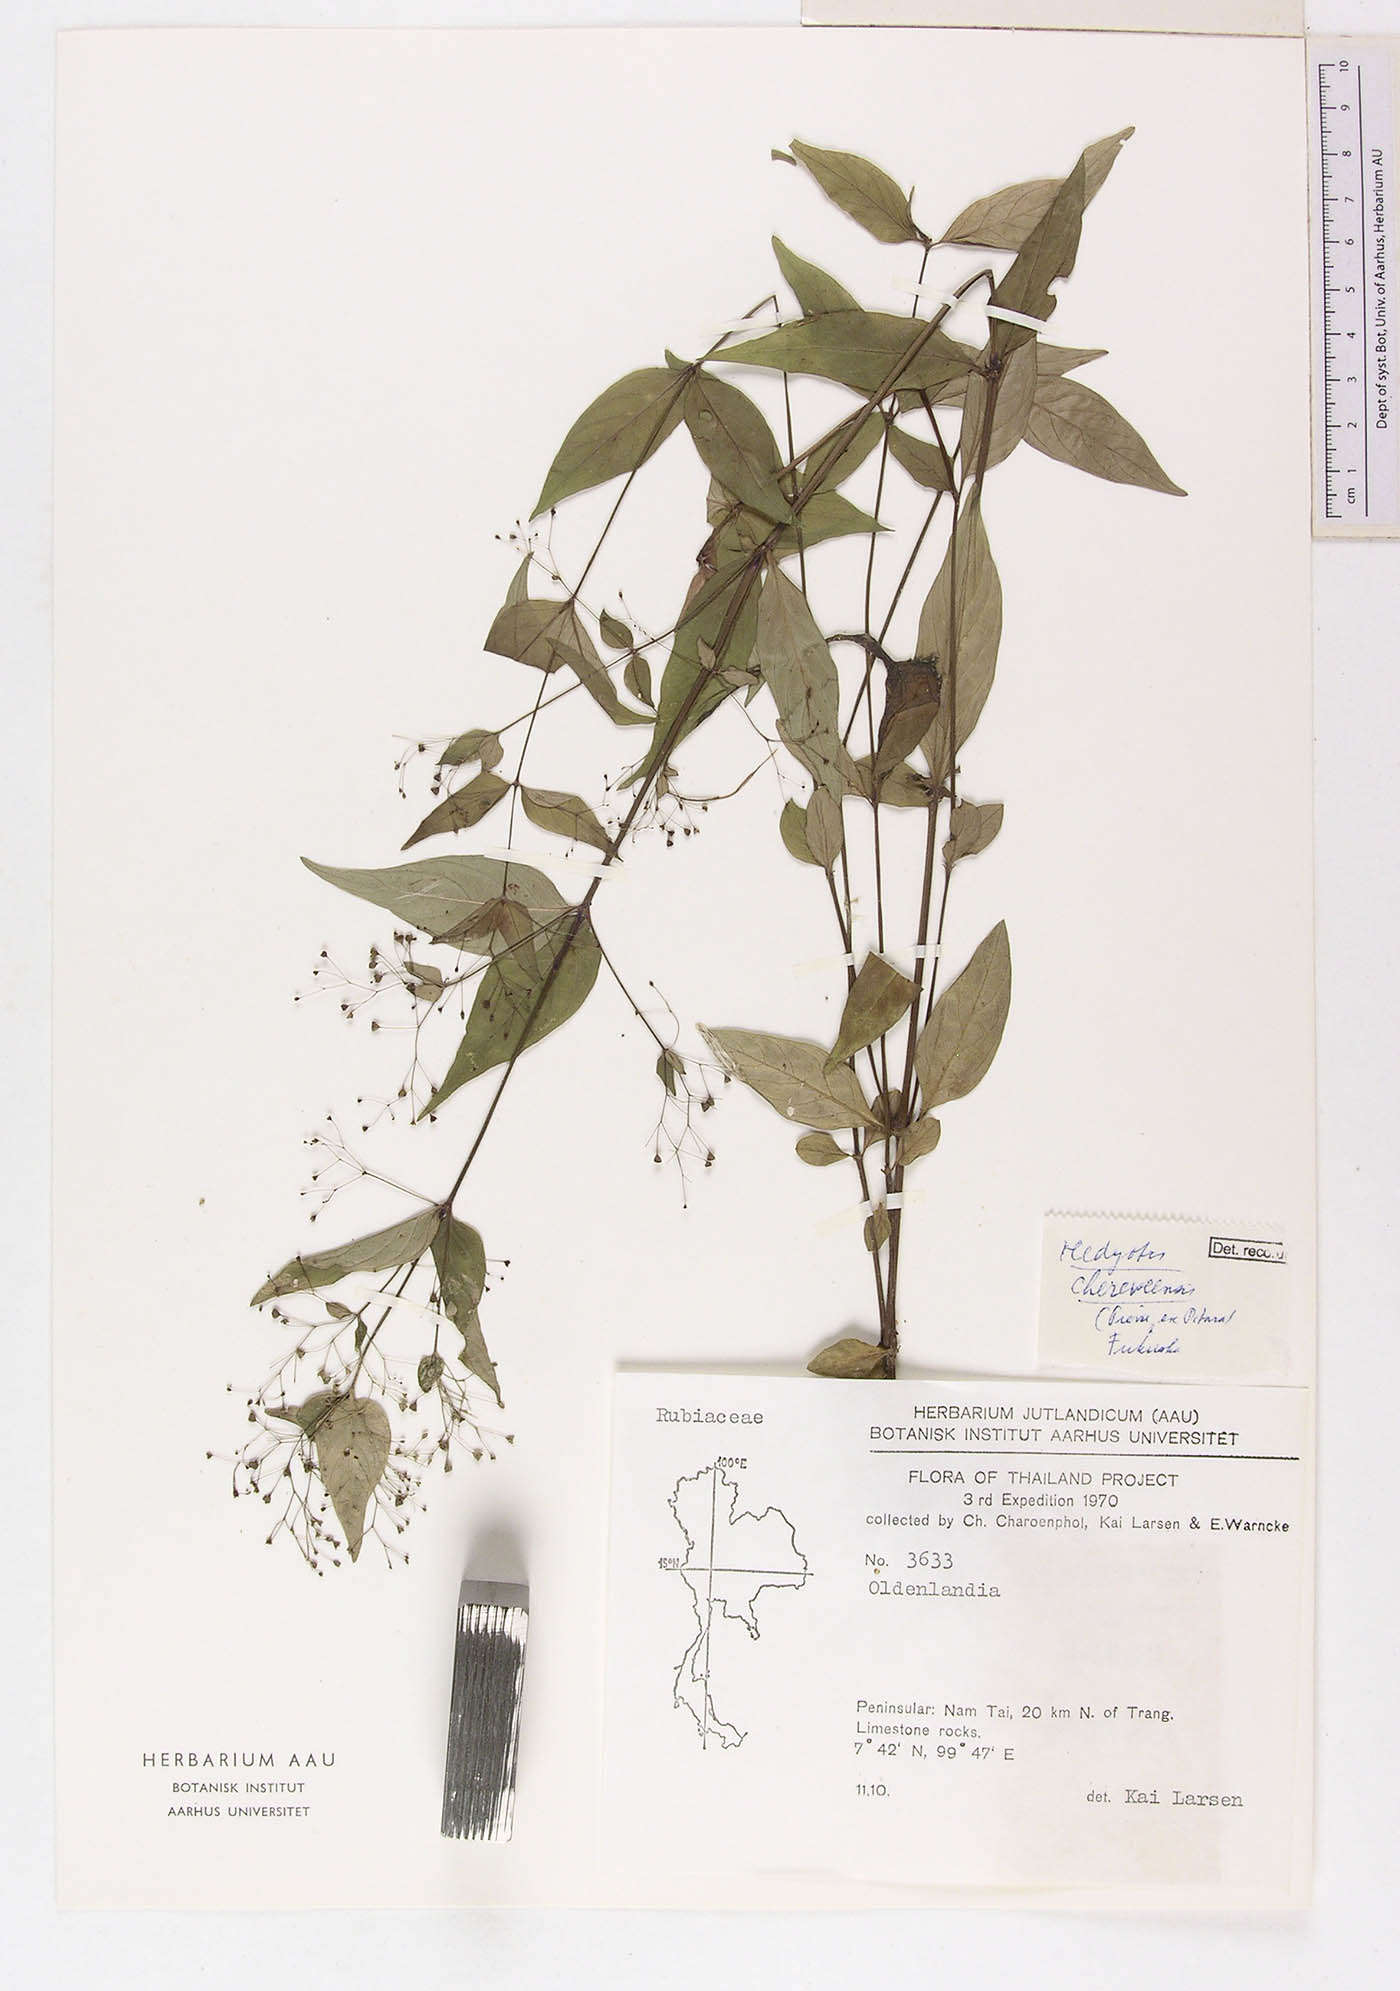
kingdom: Plantae
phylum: Tracheophyta
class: Magnoliopsida
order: Gentianales
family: Rubiaceae
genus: Involucrella
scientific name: Involucrella chereevensis
